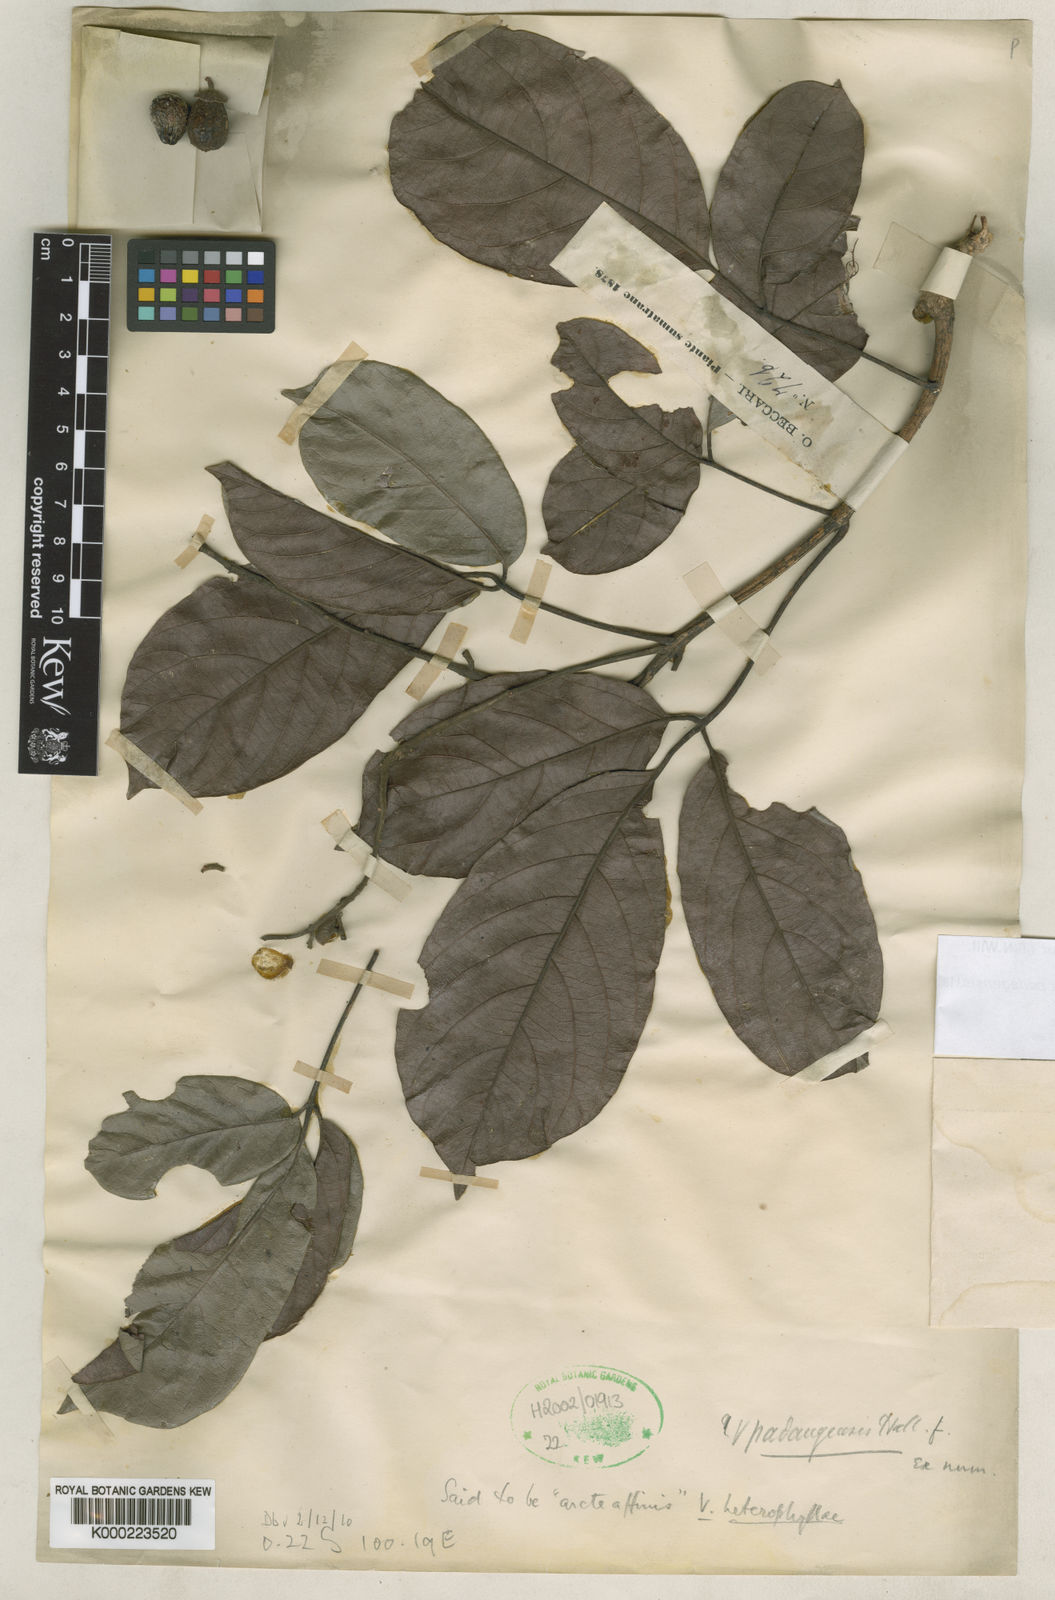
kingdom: Plantae
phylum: Tracheophyta
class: Magnoliopsida
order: Lamiales
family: Lamiaceae
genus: Vitex
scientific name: Vitex quinata
